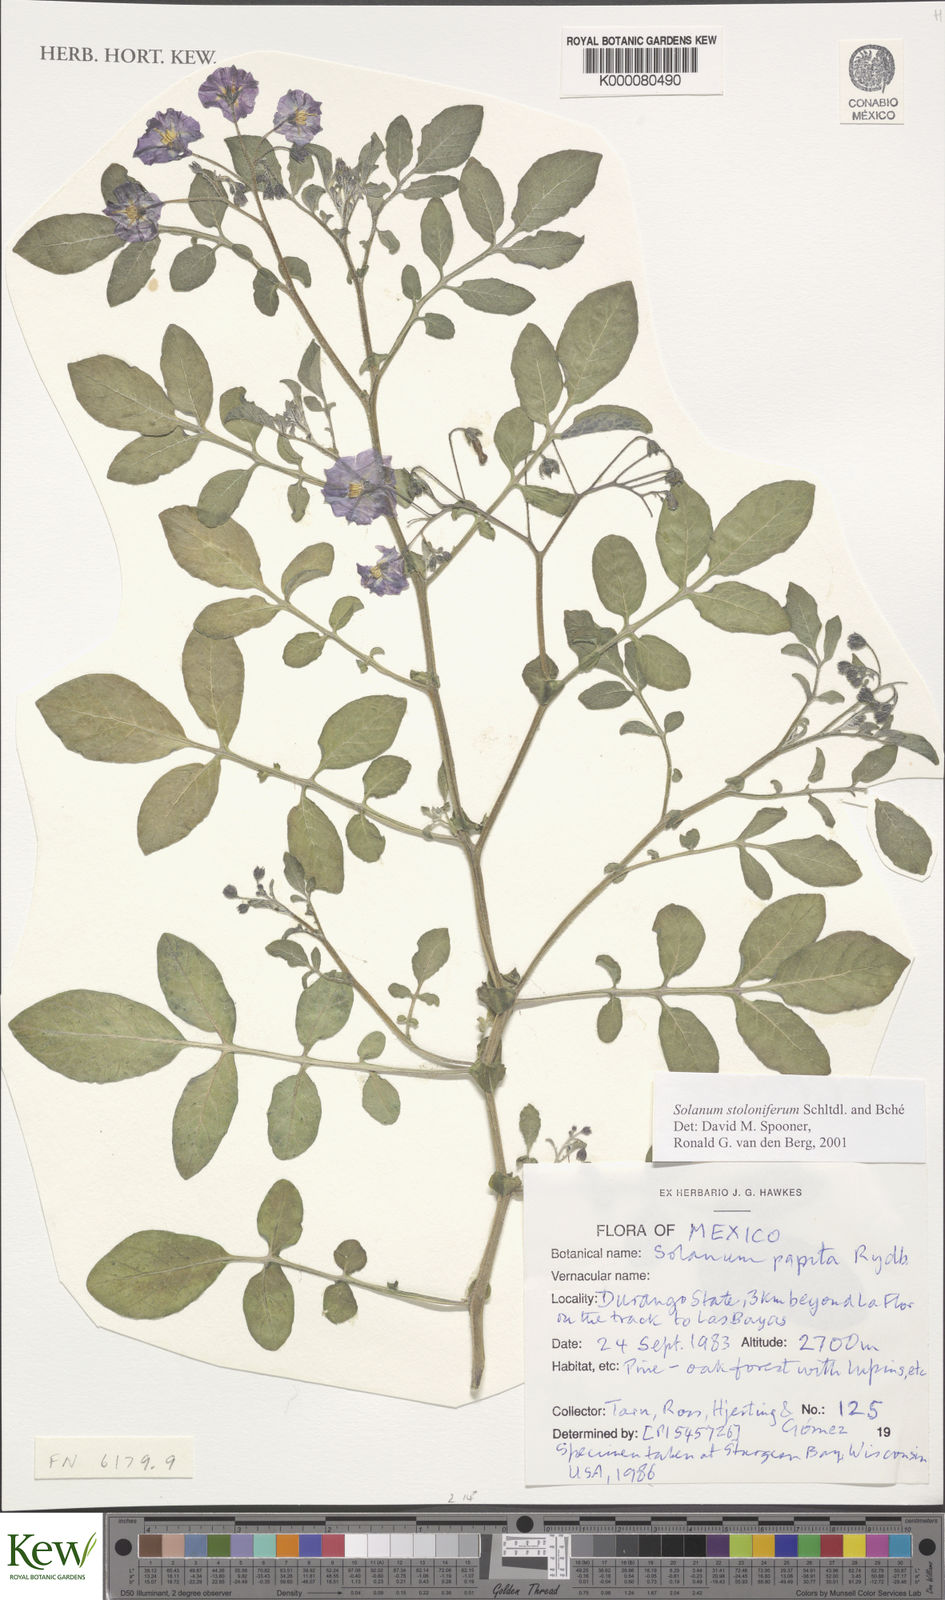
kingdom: Plantae
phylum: Tracheophyta
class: Magnoliopsida
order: Solanales
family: Solanaceae
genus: Solanum
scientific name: Solanum stoloniferum
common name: Fendler's nighshade
